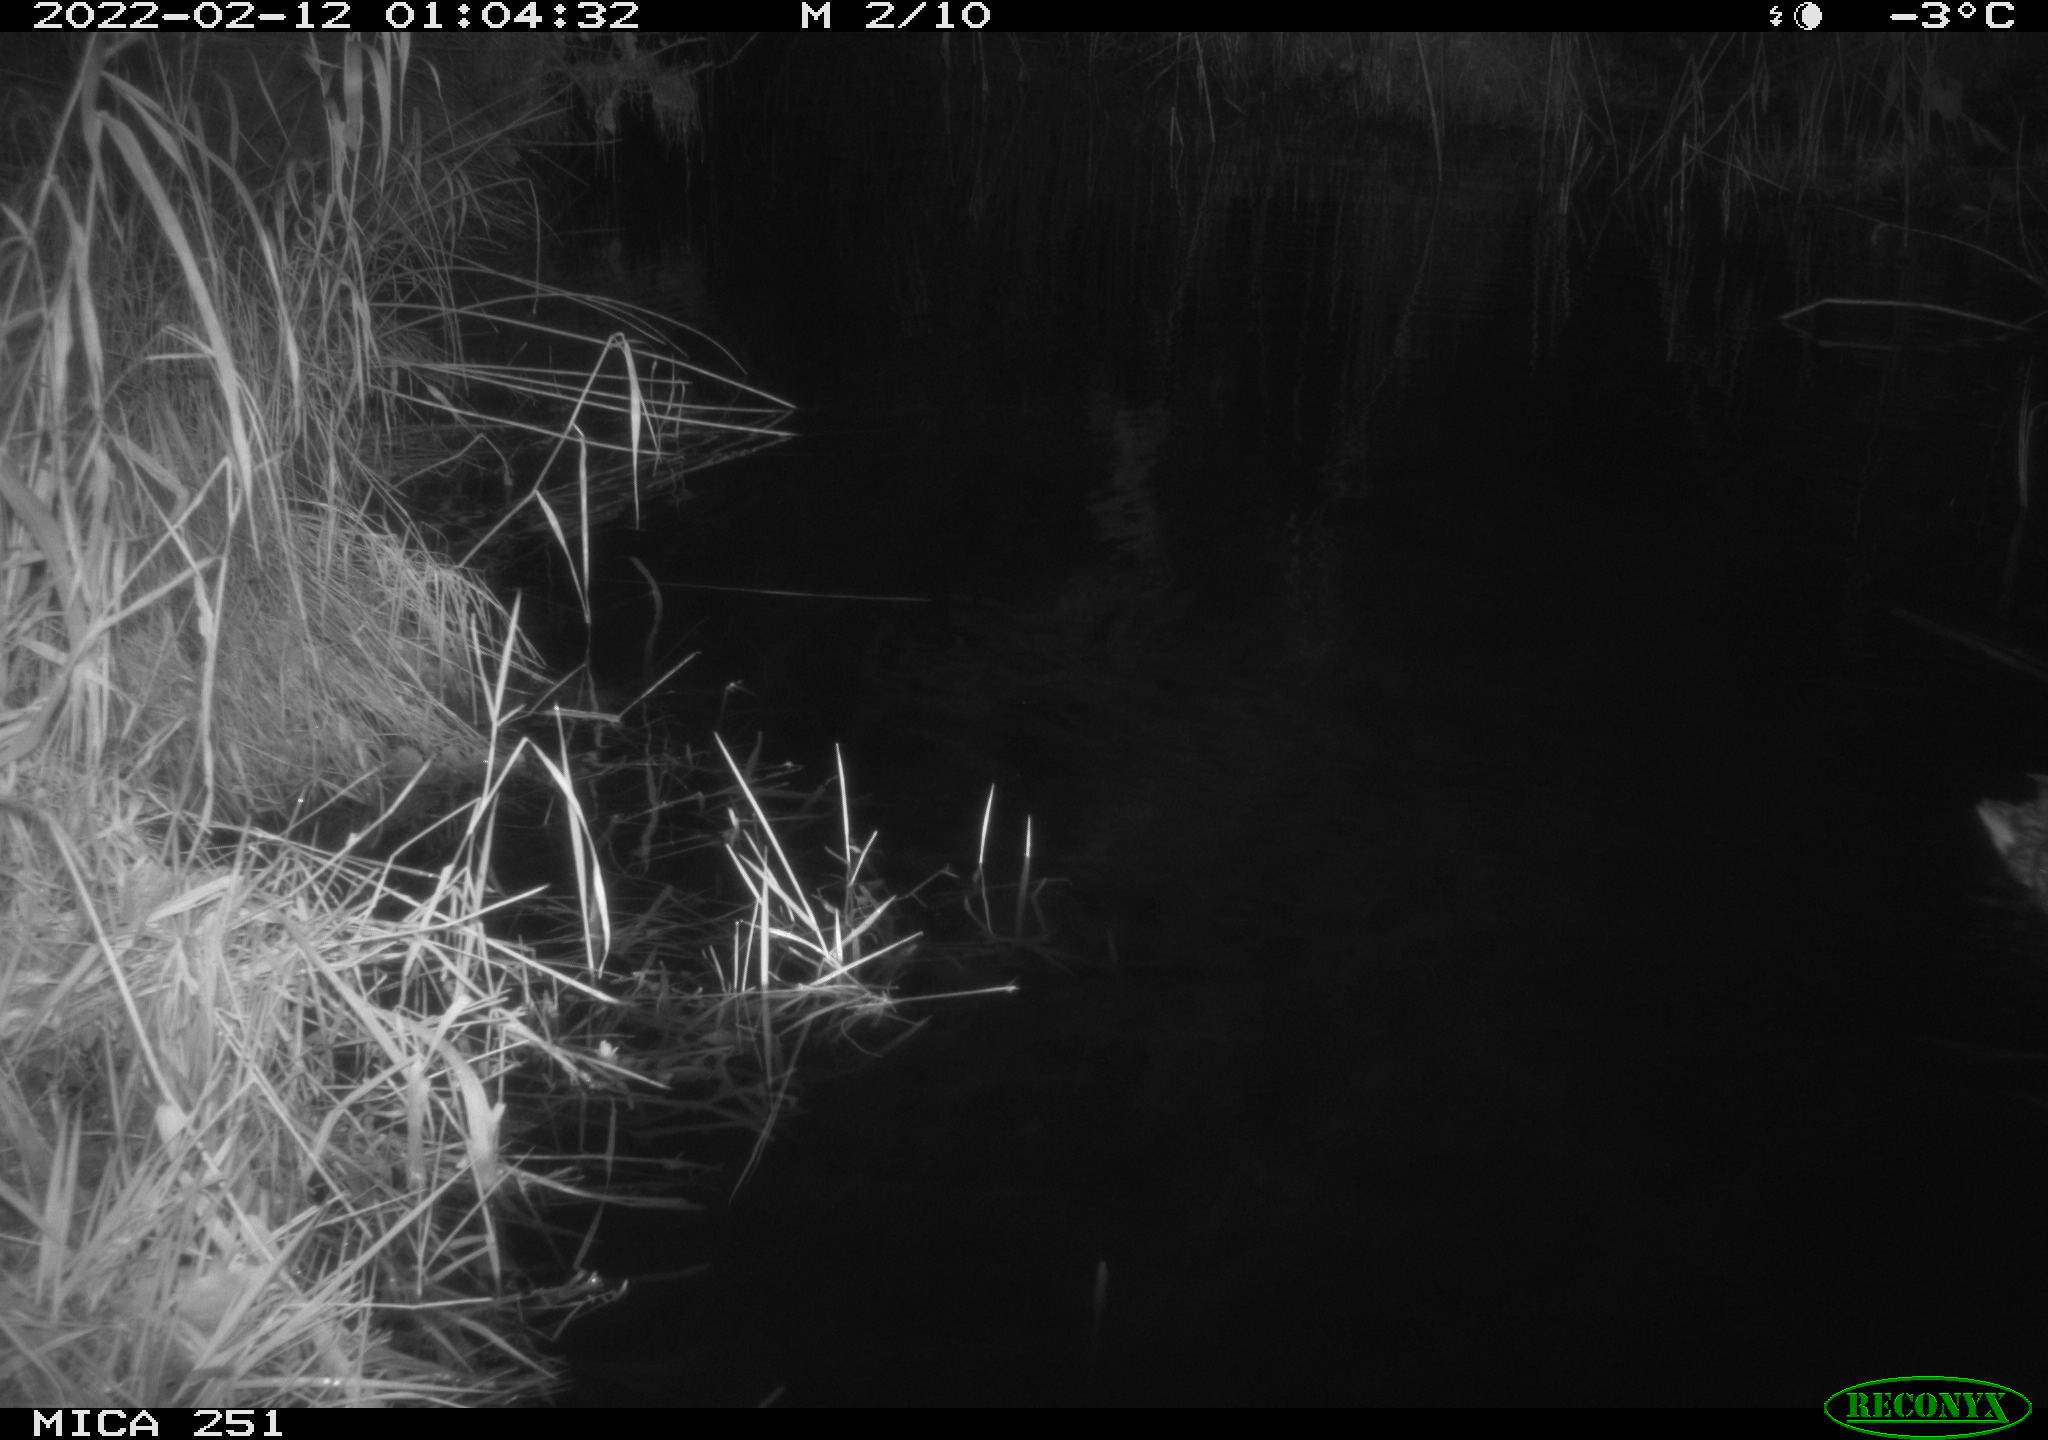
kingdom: Animalia
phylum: Chordata
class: Aves
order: Anseriformes
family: Anatidae
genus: Anas
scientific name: Anas platyrhynchos
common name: Mallard
